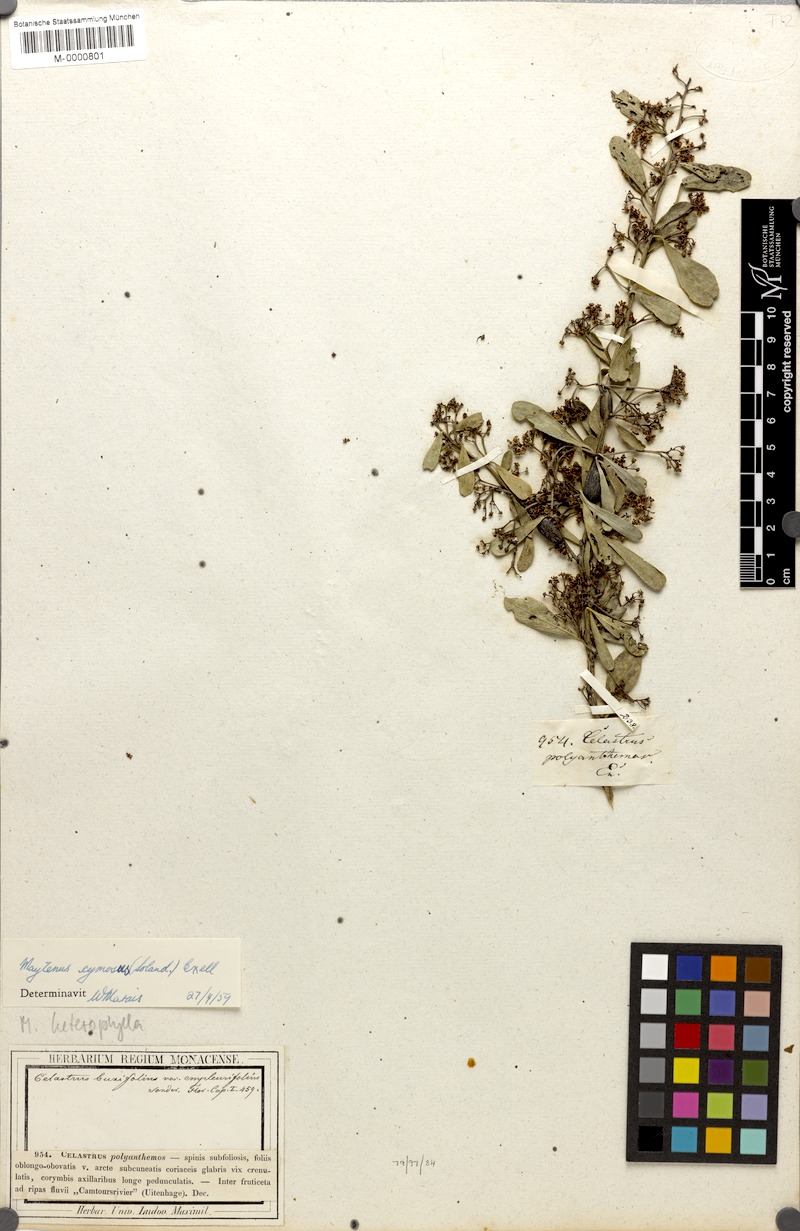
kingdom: Plantae
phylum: Tracheophyta
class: Magnoliopsida
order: Celastrales
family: Celastraceae
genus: Gymnosporia
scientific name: Gymnosporia buxifolia
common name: Common spike-thorn
